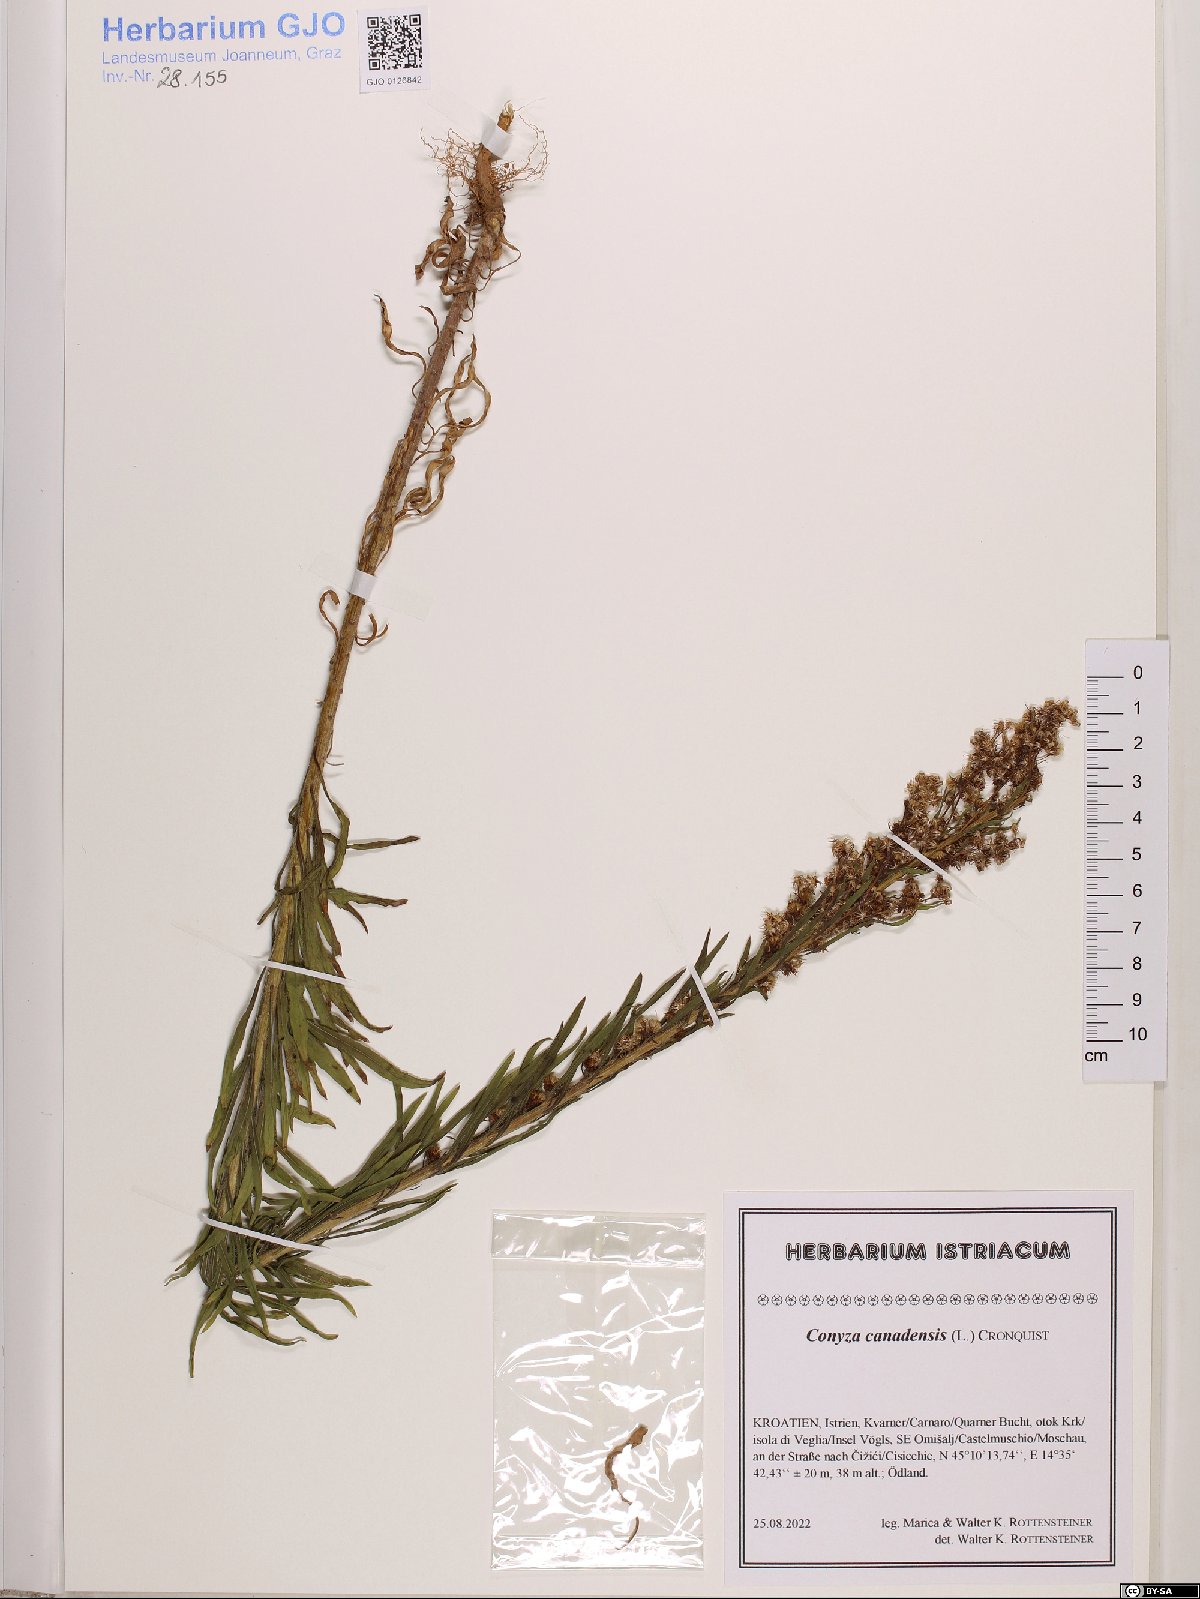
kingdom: Plantae
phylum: Tracheophyta
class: Magnoliopsida
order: Asterales
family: Asteraceae
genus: Erigeron
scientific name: Erigeron canadensis
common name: Canadian fleabane
